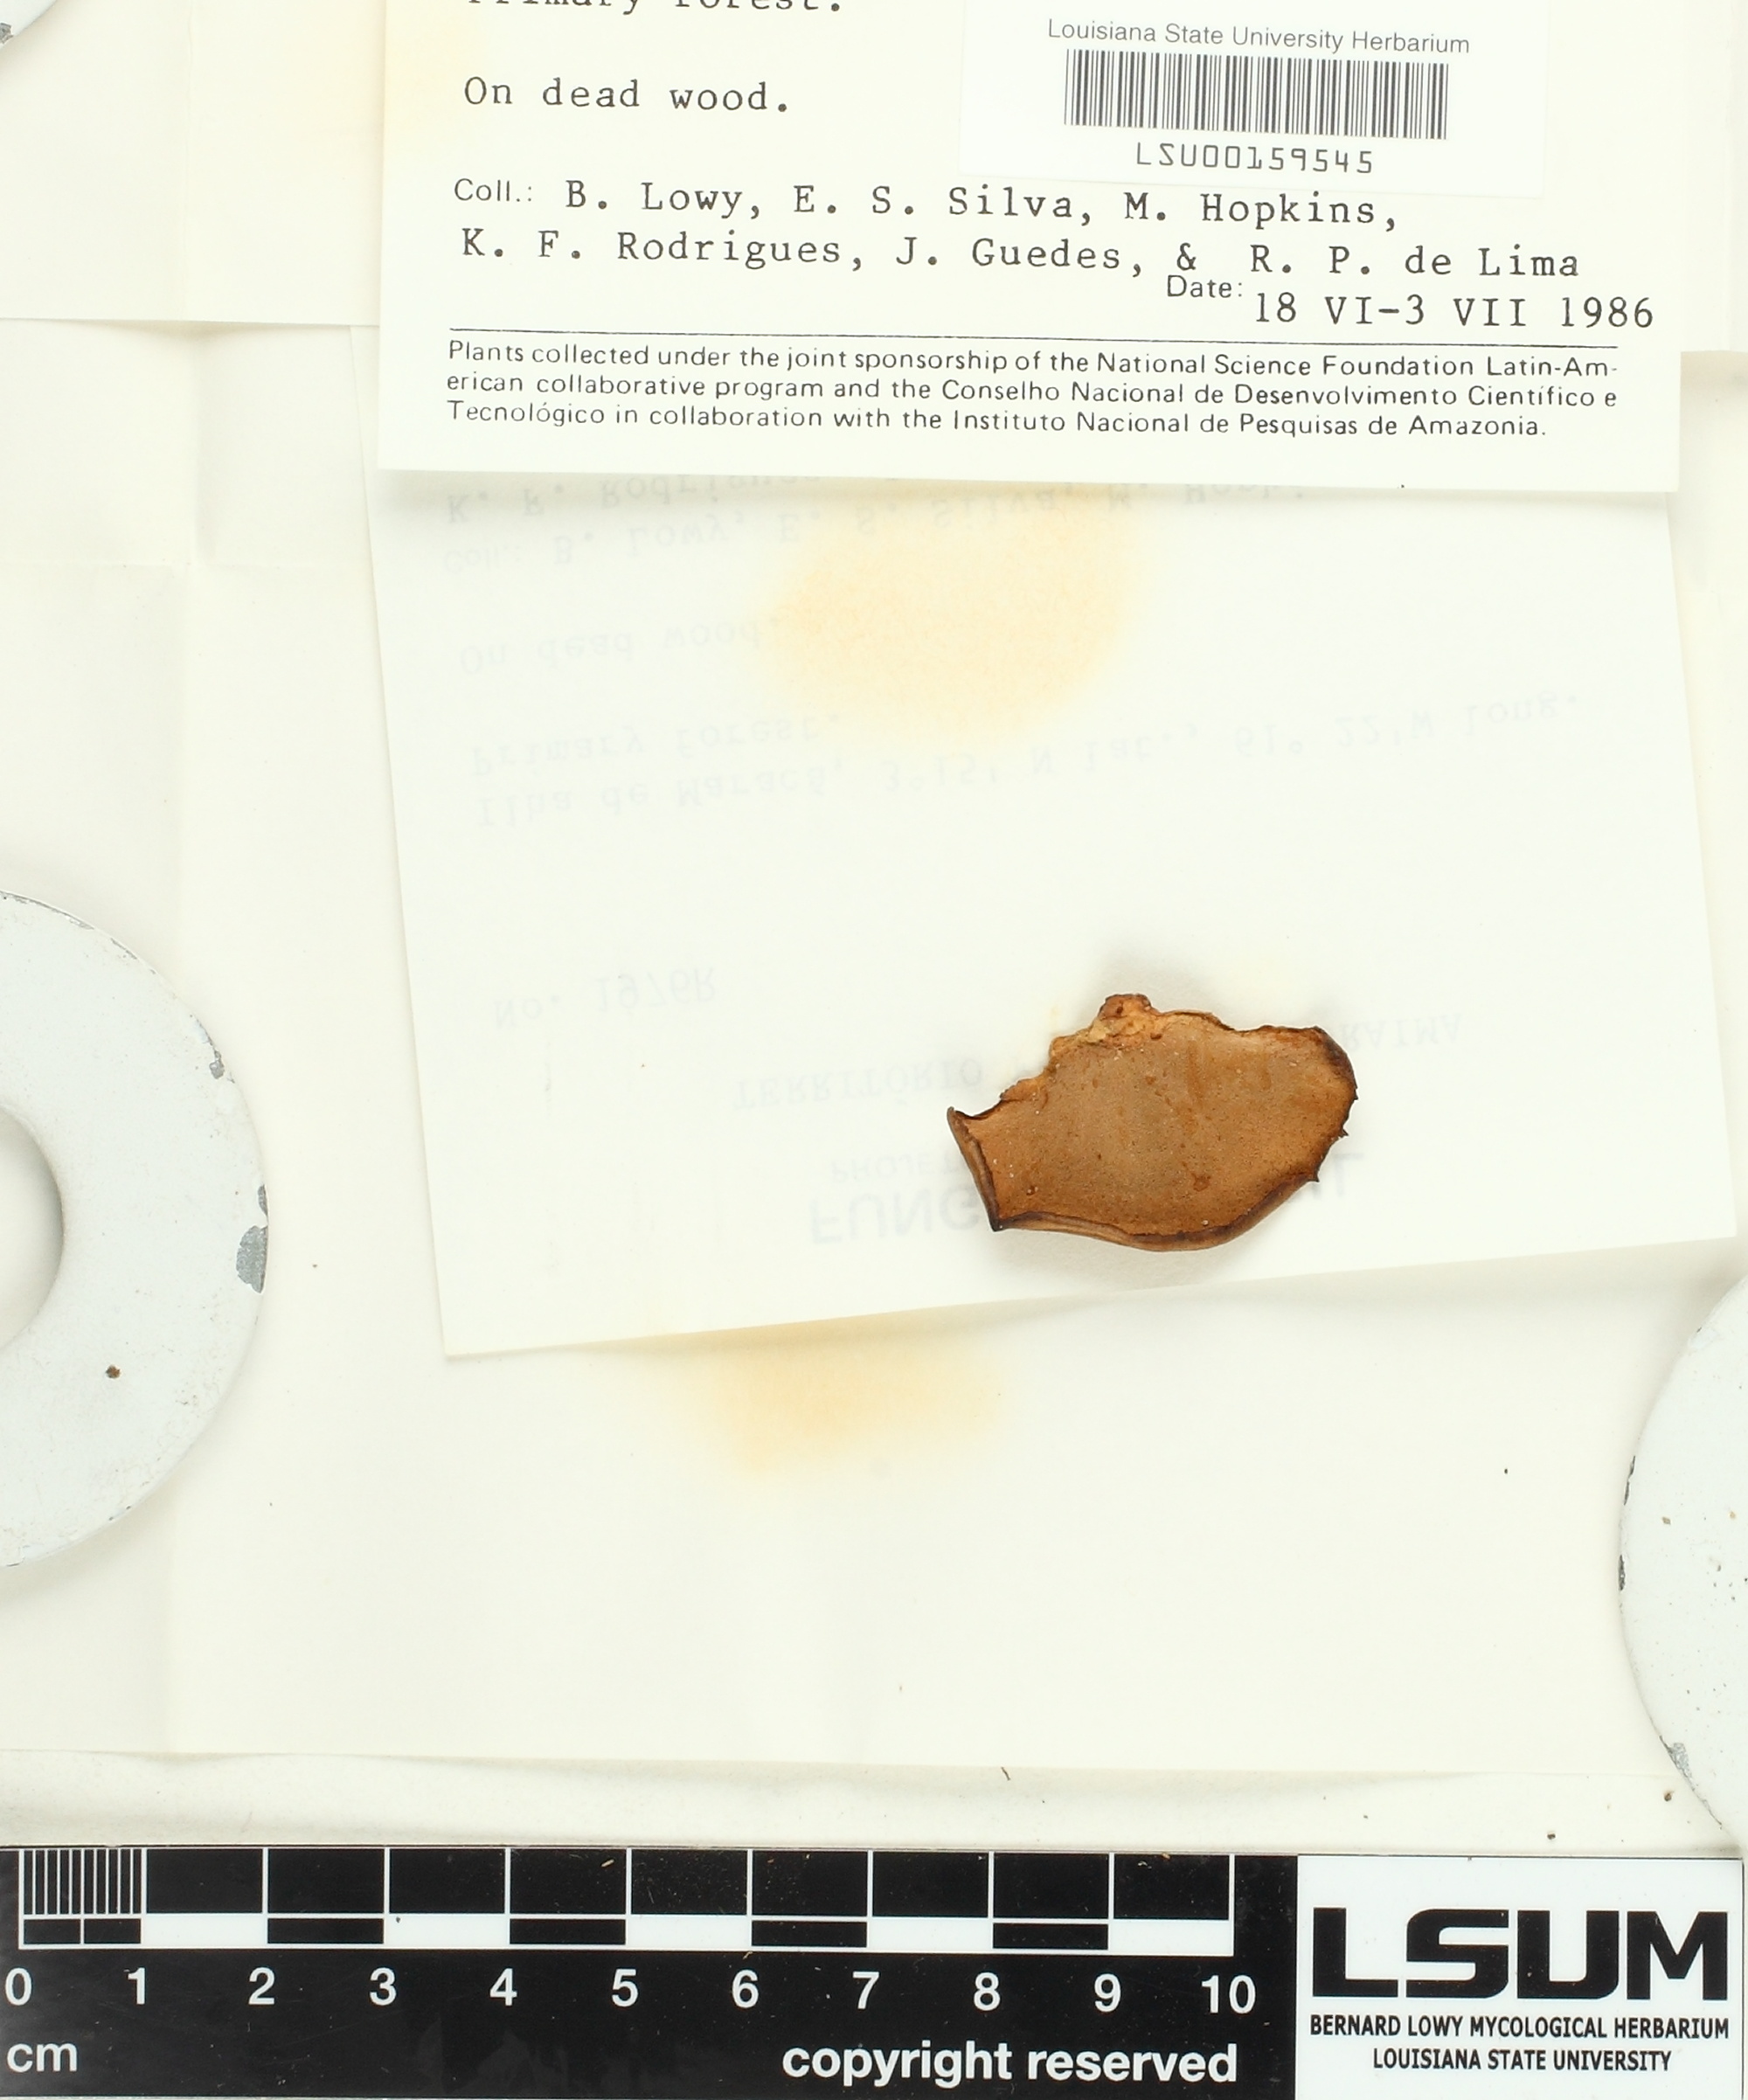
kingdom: Fungi
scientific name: Fungi
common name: Fungi
